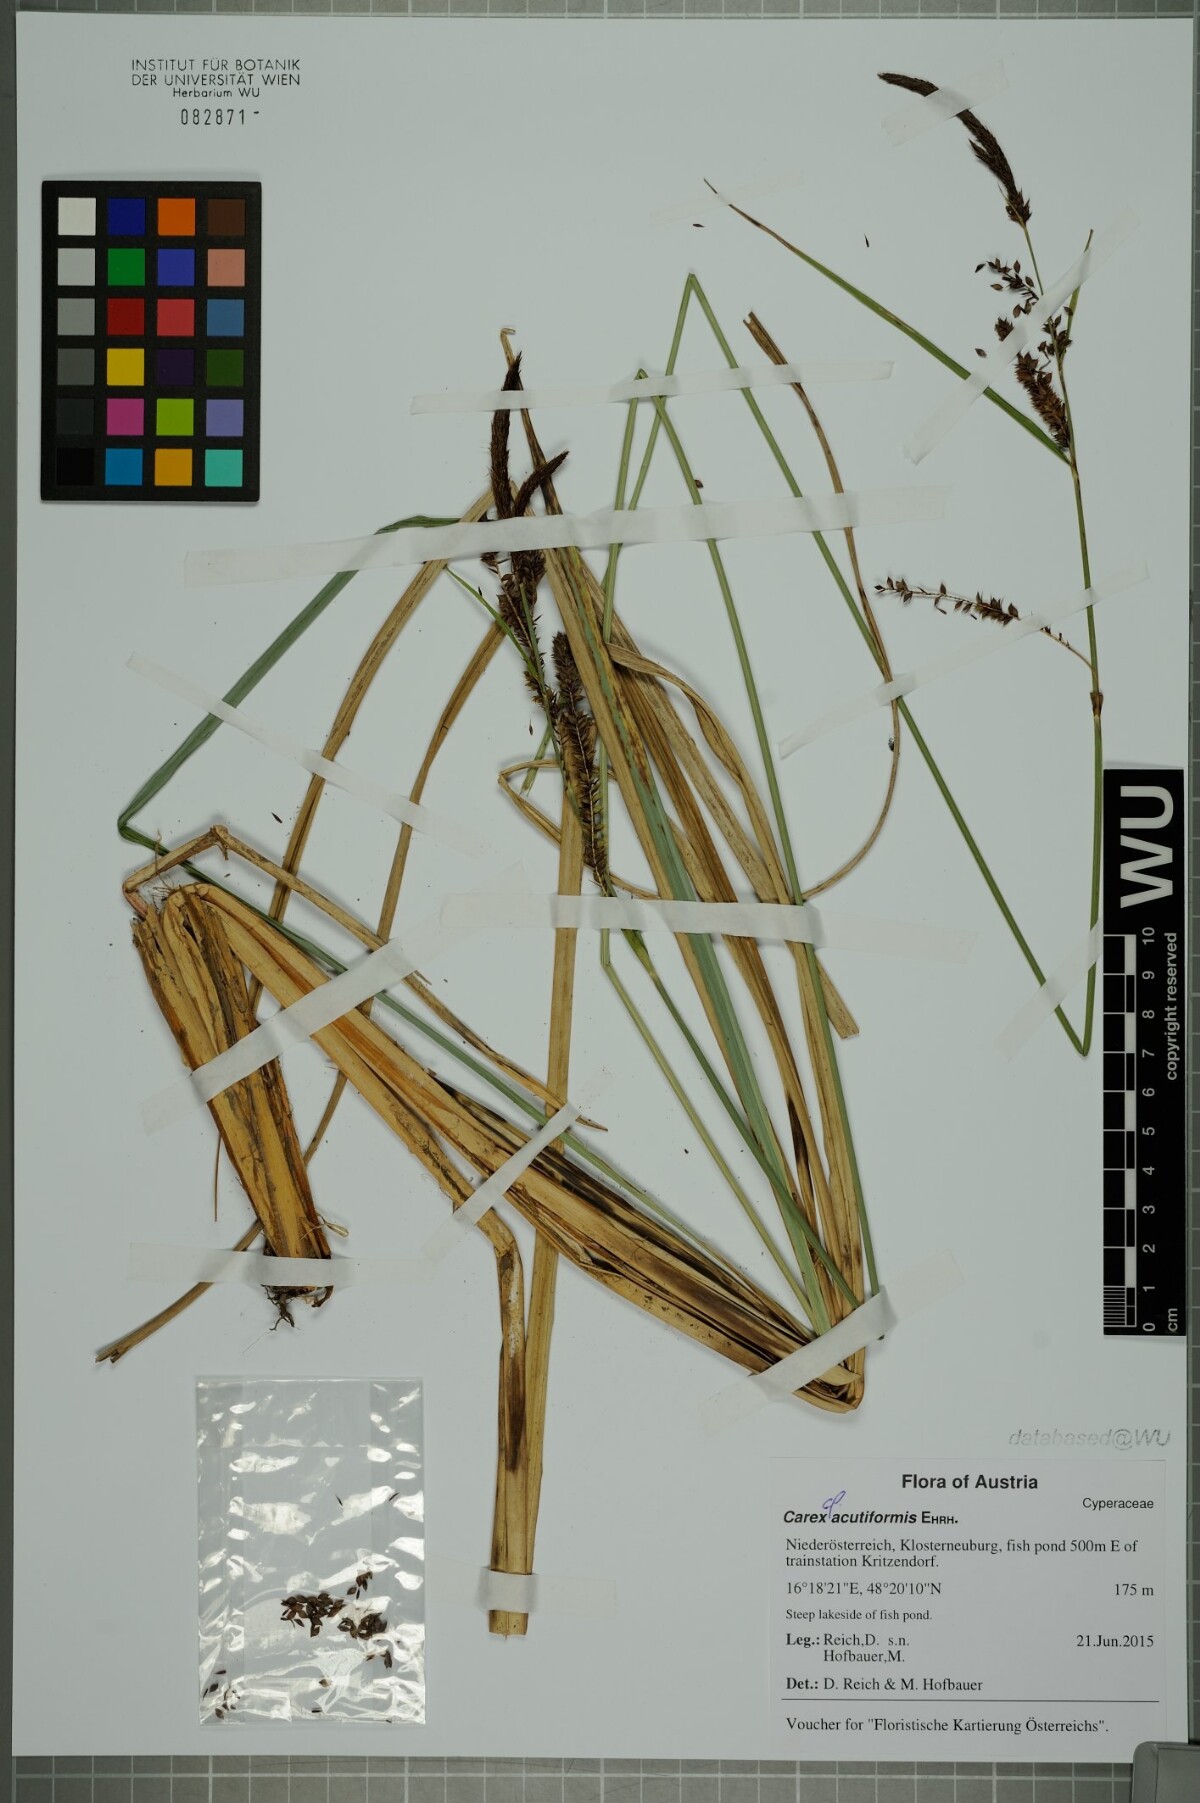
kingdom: Plantae
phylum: Tracheophyta
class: Liliopsida
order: Poales
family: Cyperaceae
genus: Carex
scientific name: Carex acutiformis
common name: Lesser pond-sedge
